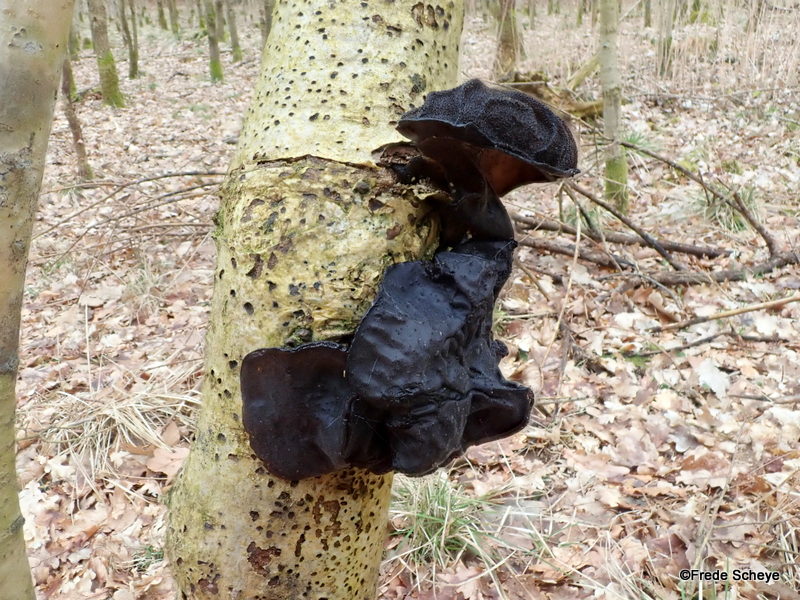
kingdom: Fungi
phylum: Basidiomycota
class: Agaricomycetes
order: Auriculariales
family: Auriculariaceae
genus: Exidia
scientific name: Exidia glandulosa
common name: ege-bævretop
